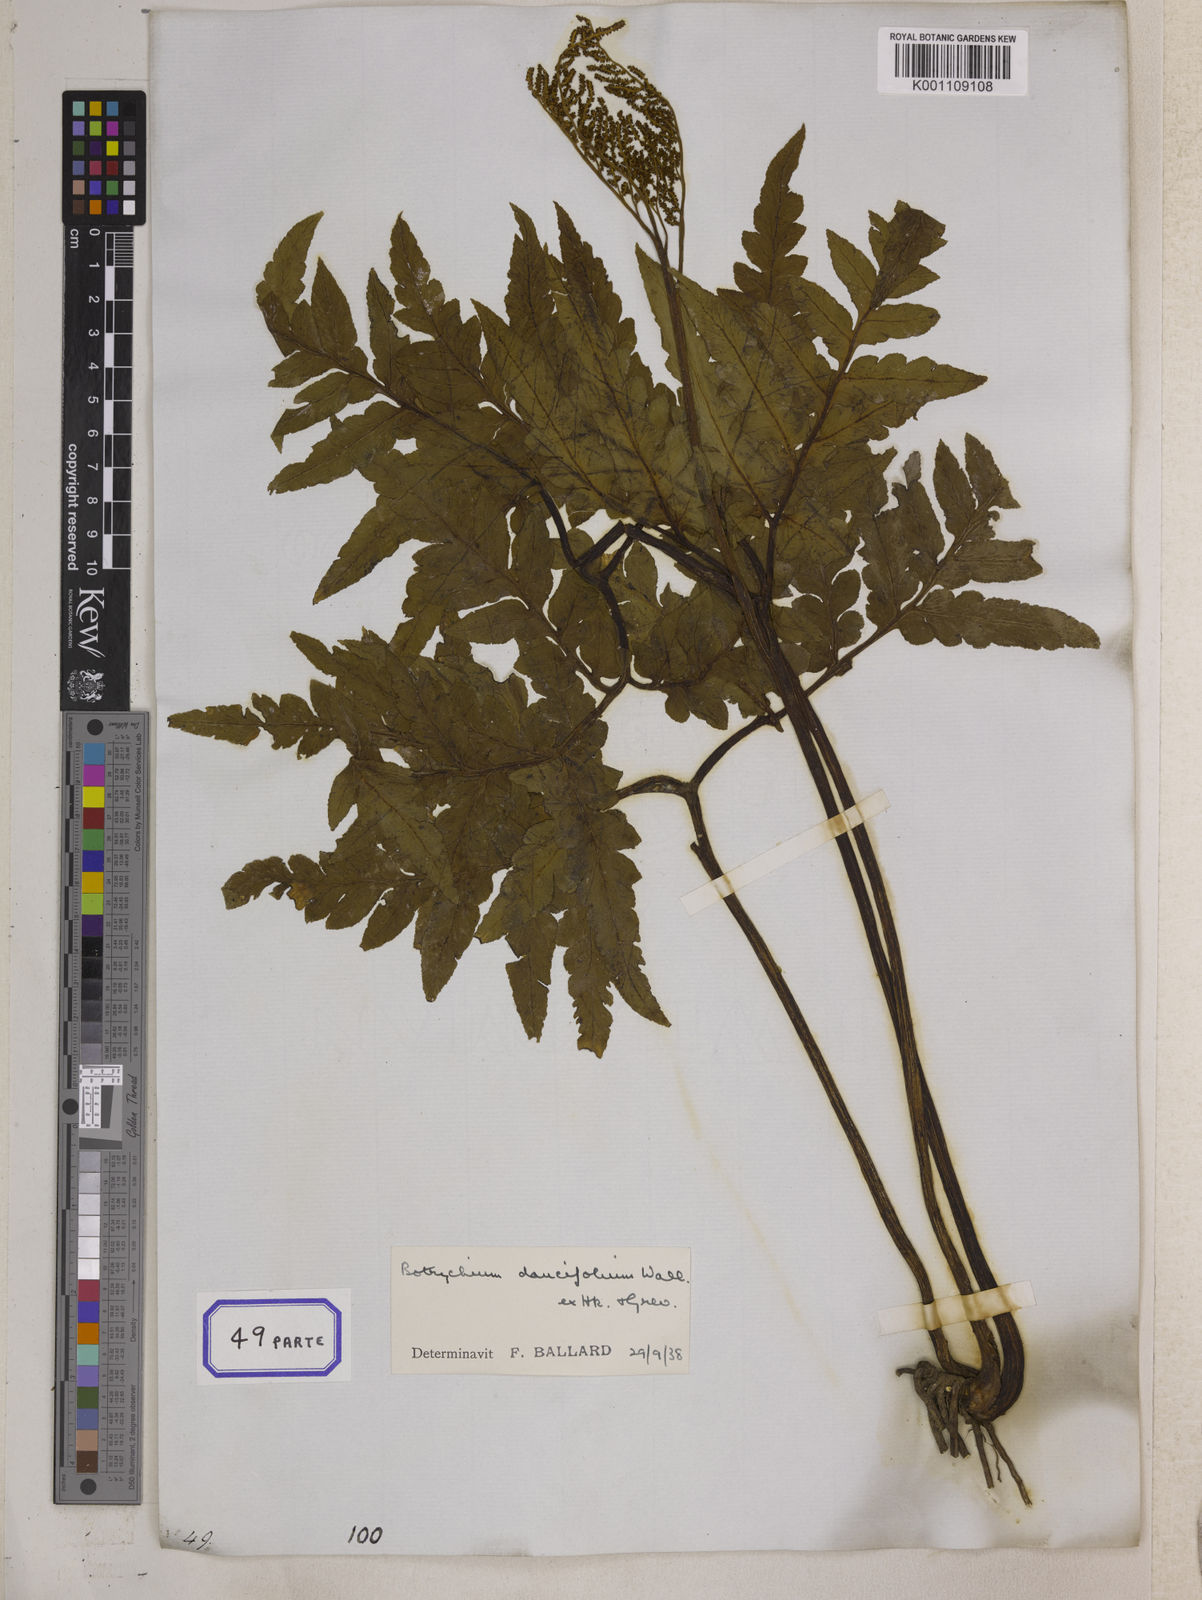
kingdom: Plantae
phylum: Tracheophyta
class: Polypodiopsida
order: Ophioglossales
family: Ophioglossaceae
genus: Sceptridium
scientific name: Sceptridium daucifolium
